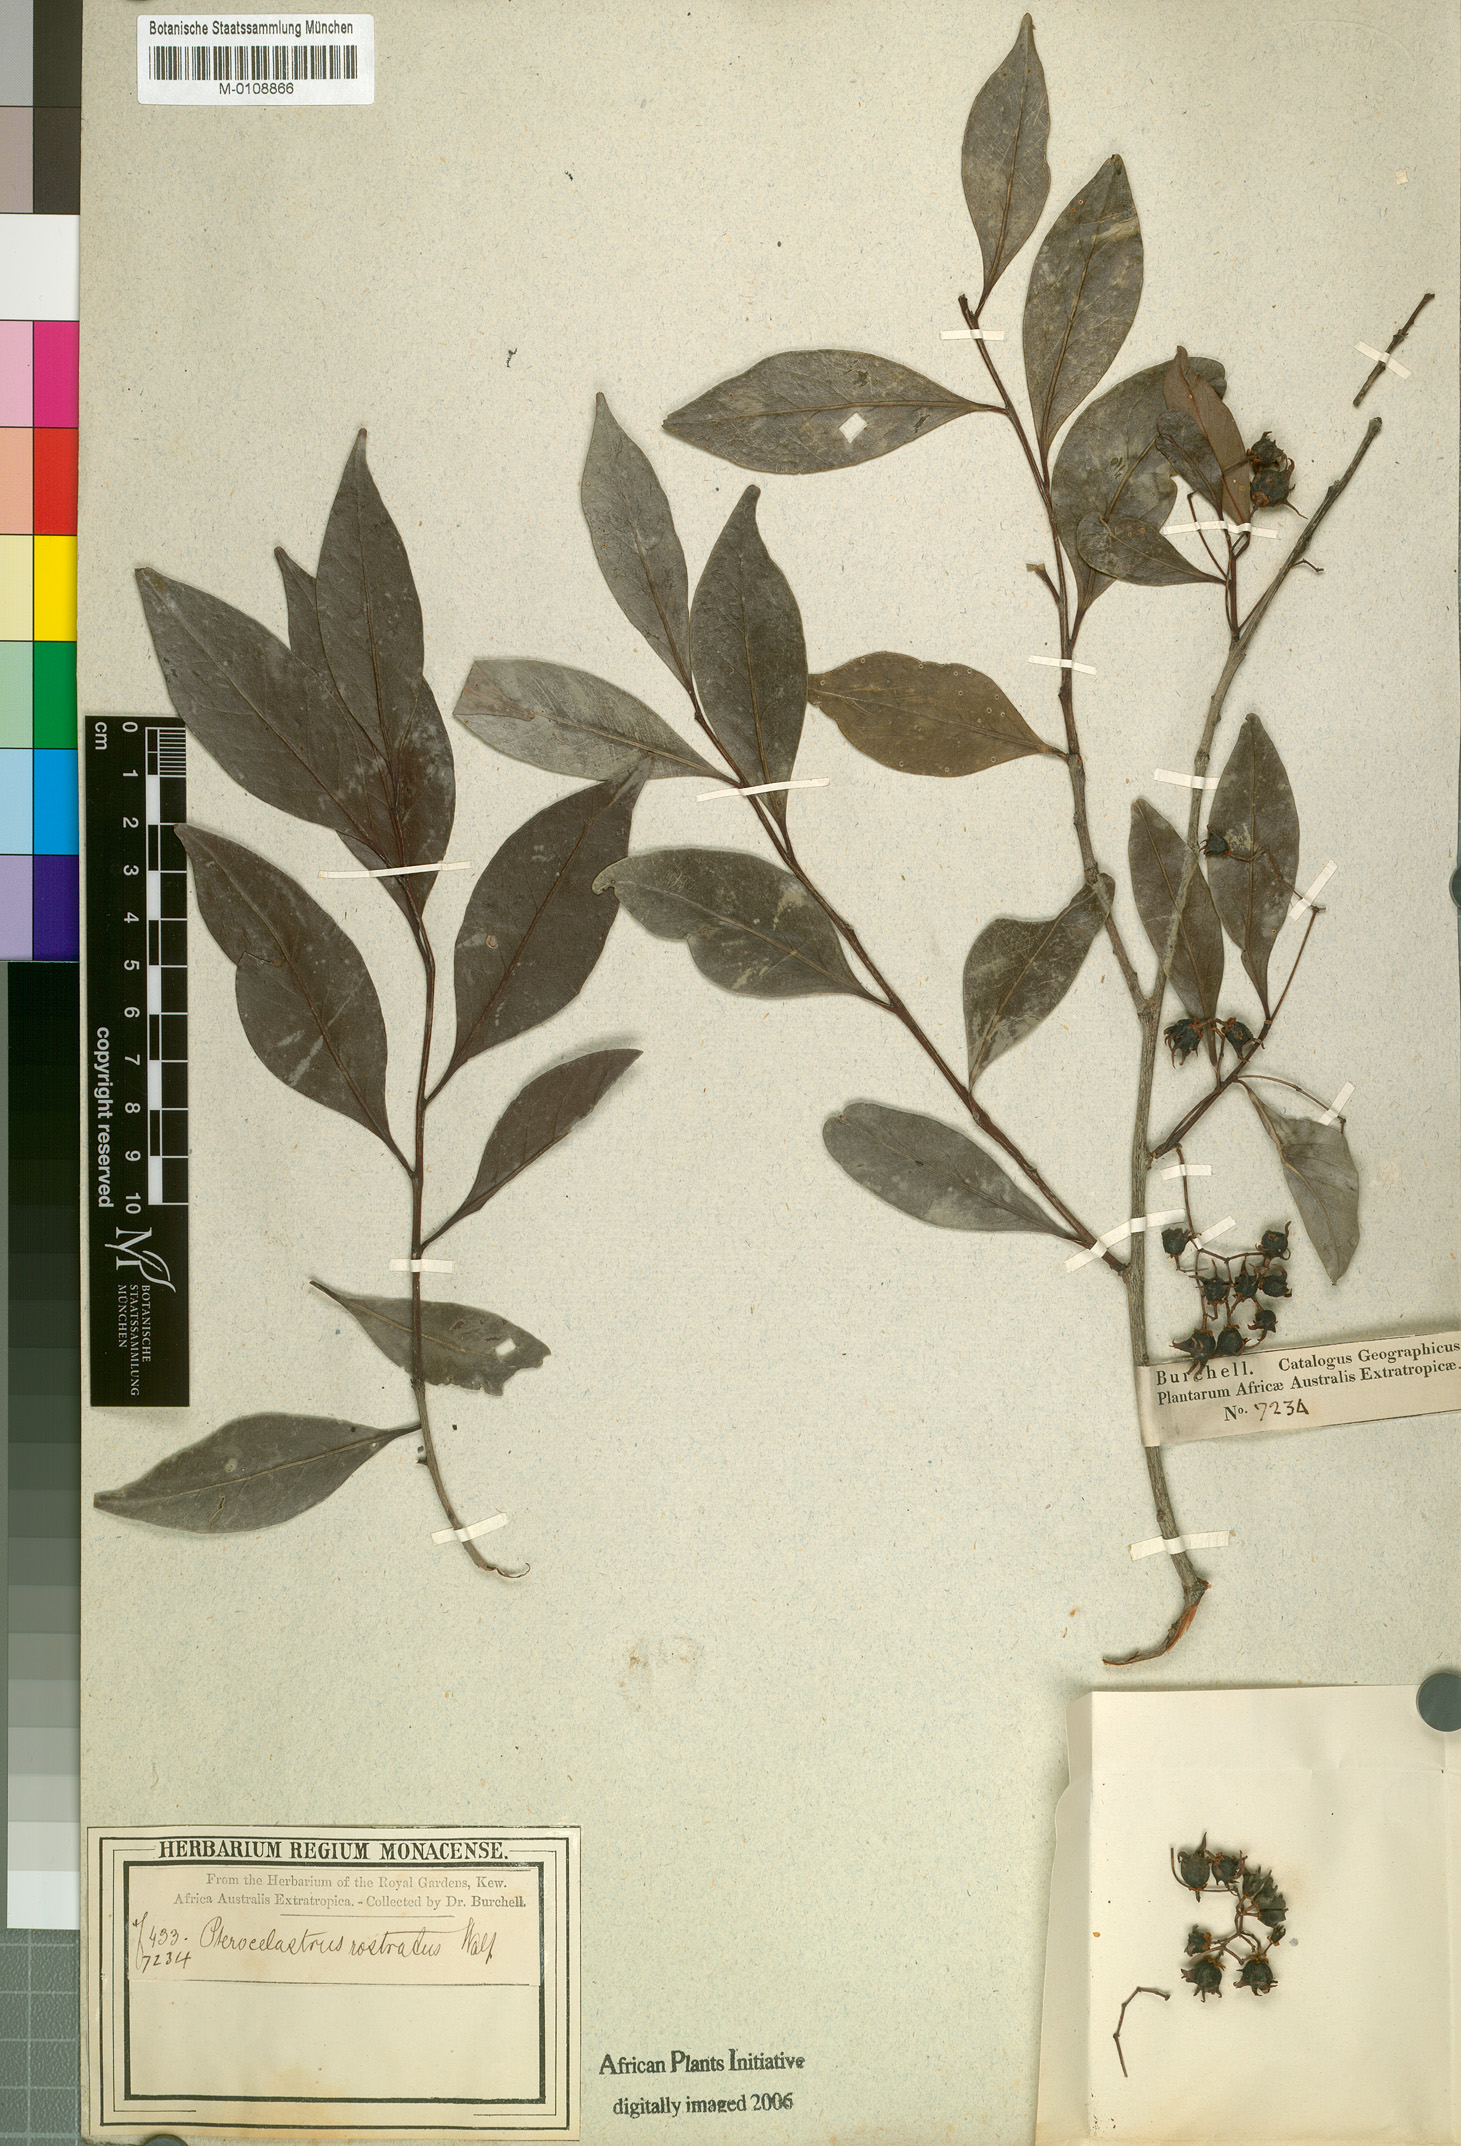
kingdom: Plantae
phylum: Tracheophyta
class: Magnoliopsida
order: Celastrales
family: Celastraceae
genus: Pterocelastrus
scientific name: Pterocelastrus rostratus
